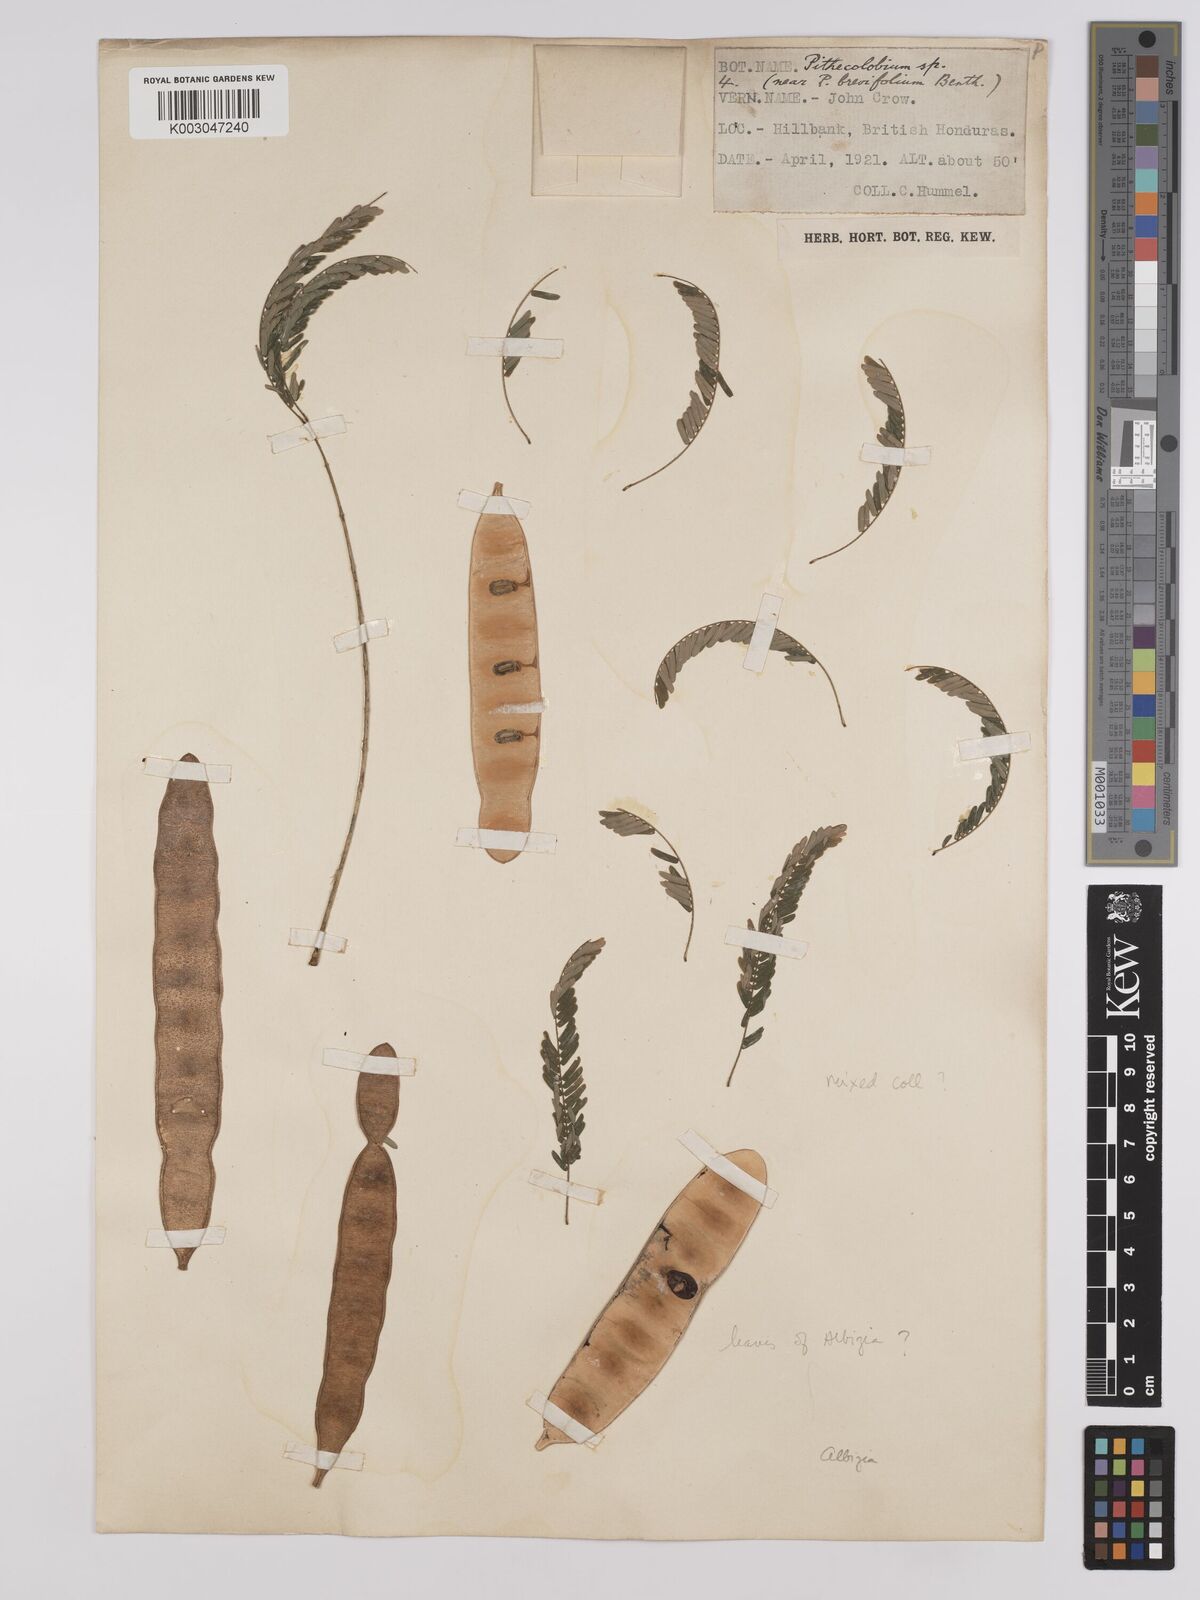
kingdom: Plantae
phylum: Tracheophyta
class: Magnoliopsida
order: Fabales
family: Fabaceae
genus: Albizia
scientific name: Albizia
